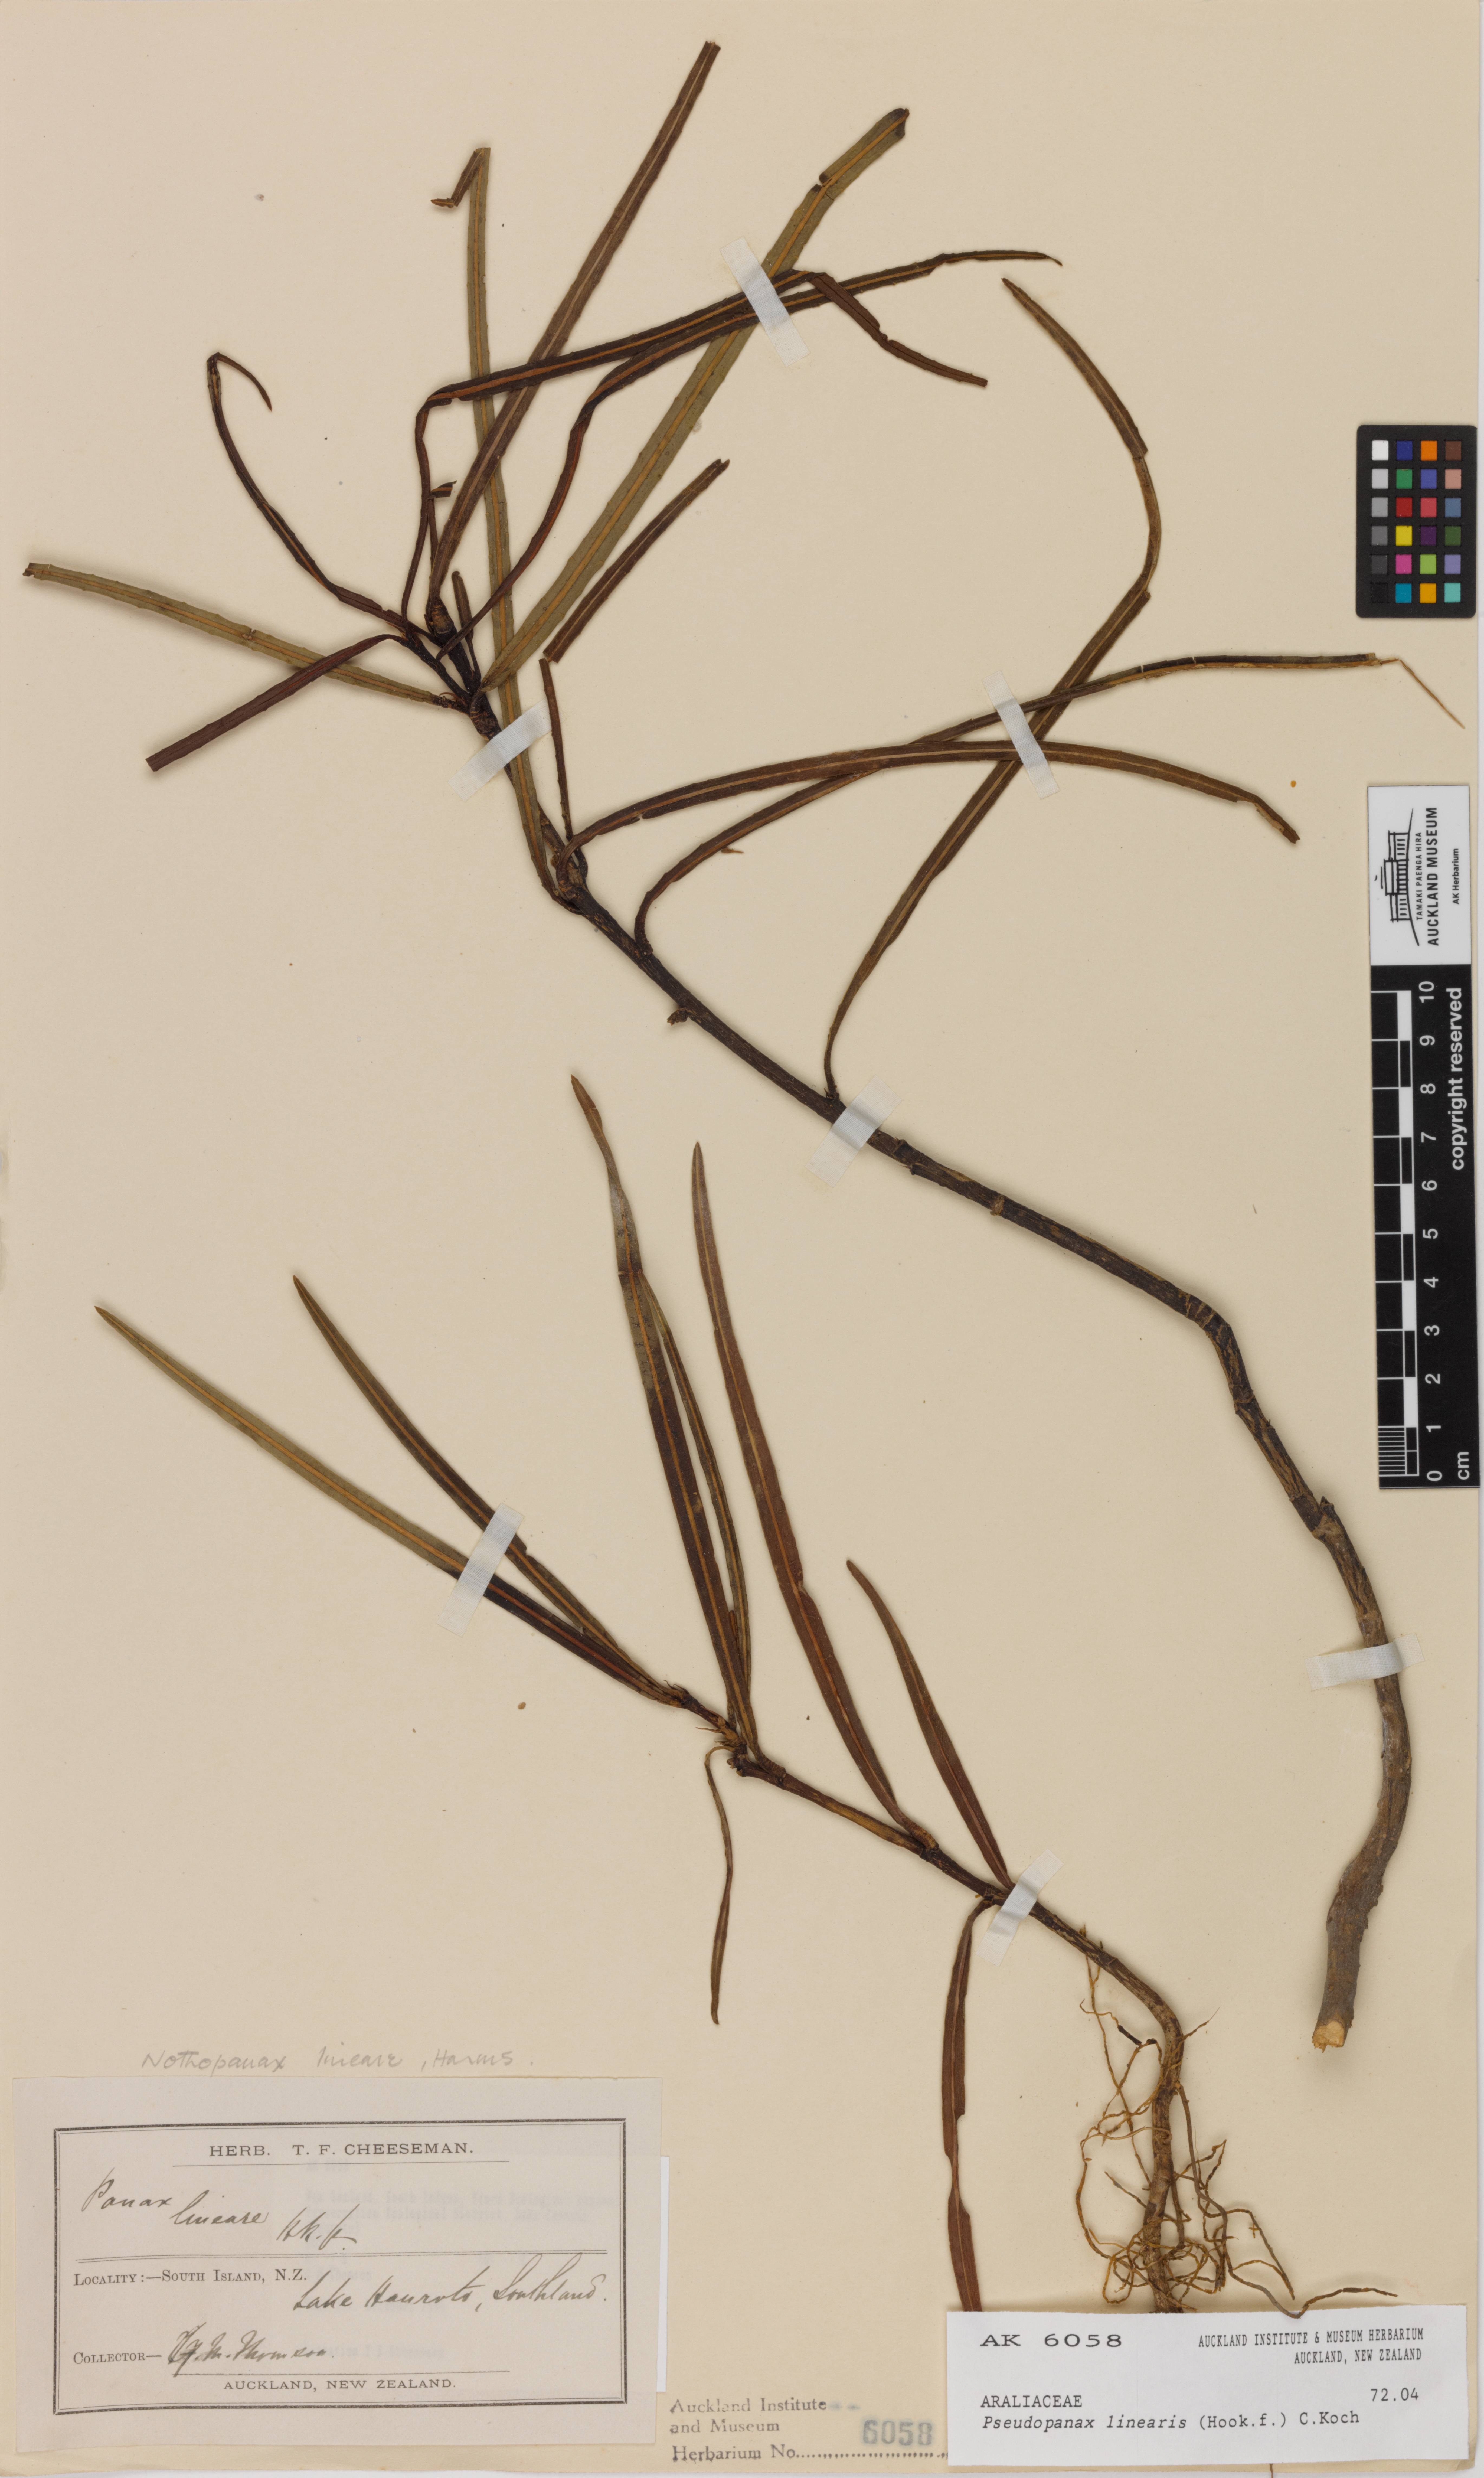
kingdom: Plantae
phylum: Tracheophyta
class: Magnoliopsida
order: Apiales
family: Araliaceae
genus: Pseudopanax
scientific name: Pseudopanax linearis
